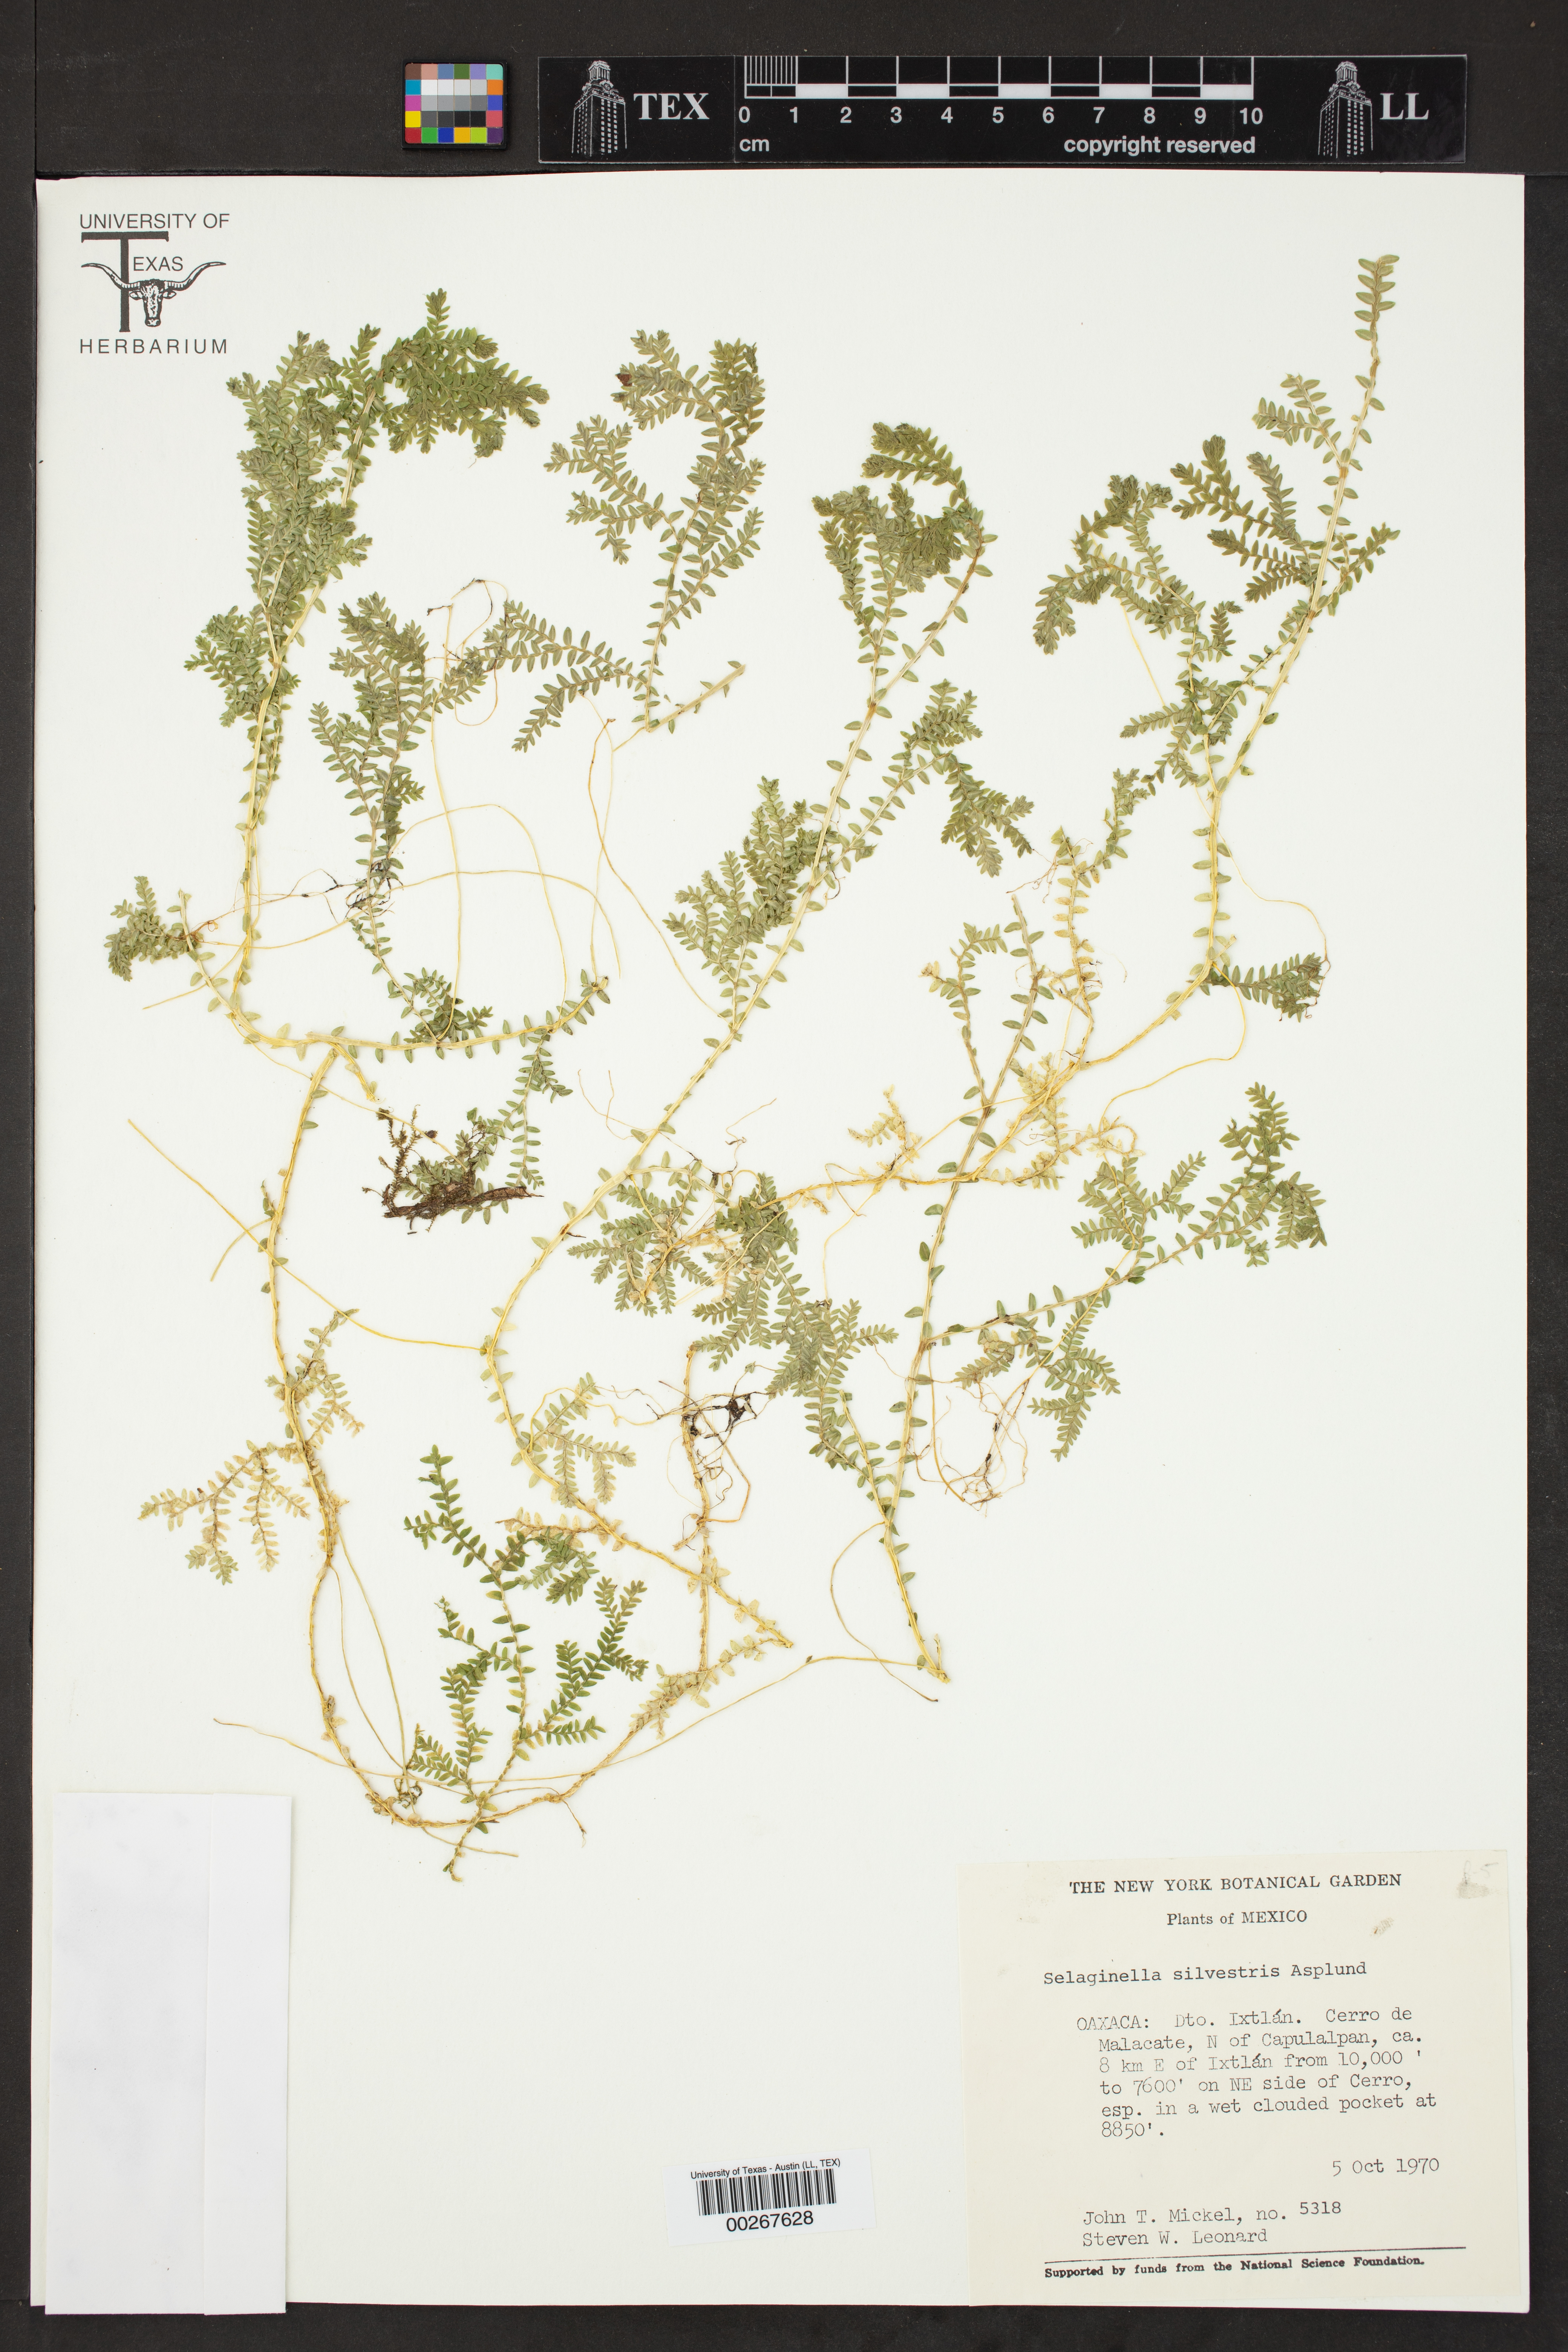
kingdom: Plantae
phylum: Tracheophyta
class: Lycopodiopsida
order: Selaginellales
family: Selaginellaceae
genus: Selaginella
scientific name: Selaginella silvestris
